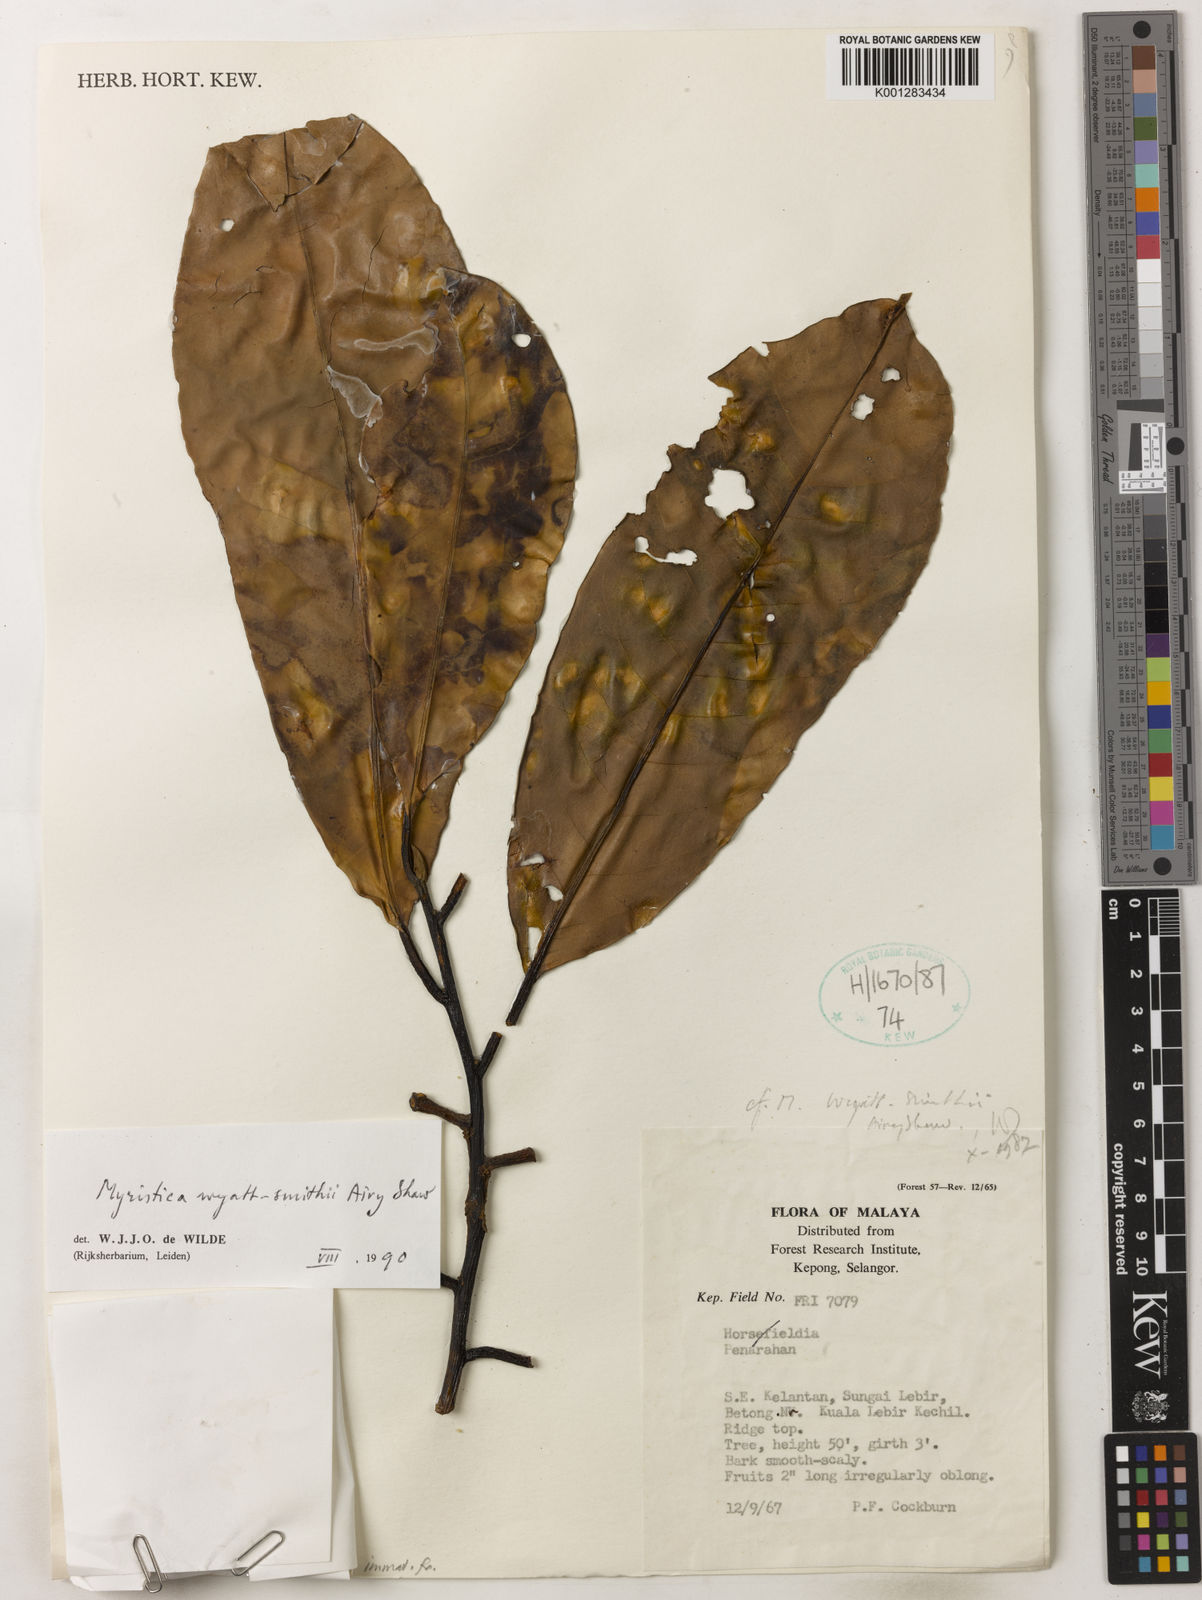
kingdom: Plantae
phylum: Tracheophyta
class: Magnoliopsida
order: Magnoliales
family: Myristicaceae
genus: Myristica
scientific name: Myristica wyatt-smithii
